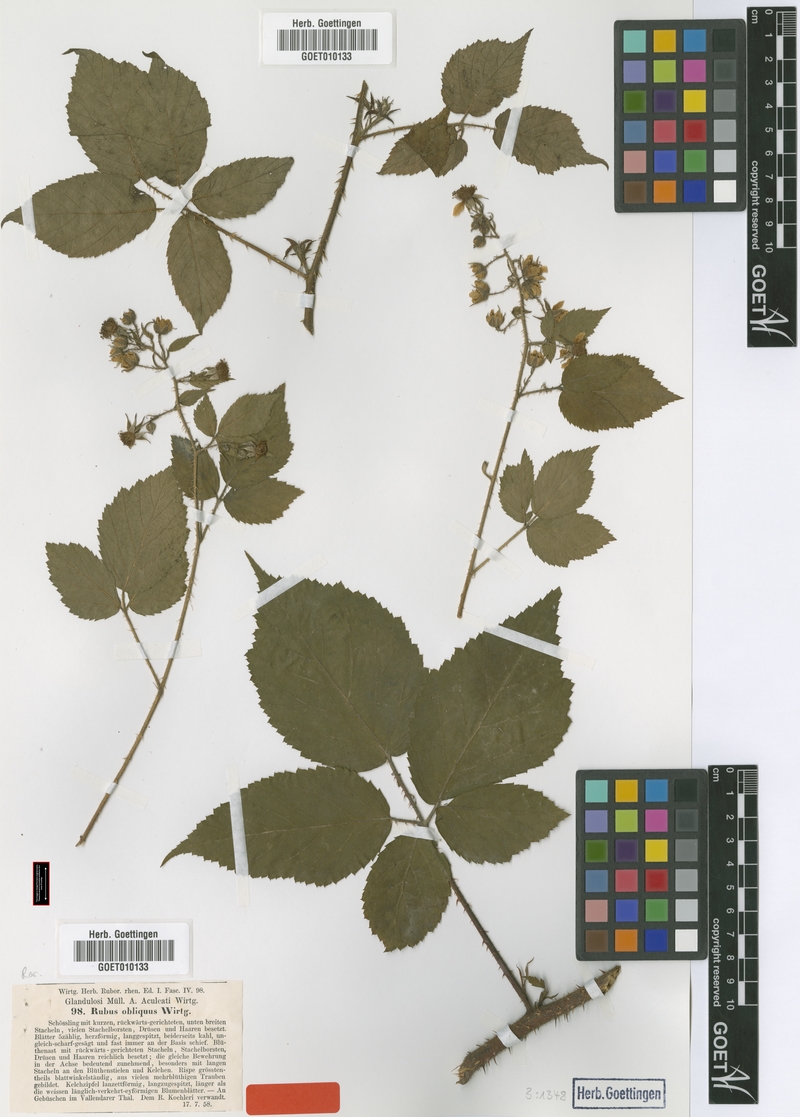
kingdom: Plantae
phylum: Tracheophyta
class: Magnoliopsida
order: Rosales
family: Rosaceae
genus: Rubus
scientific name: Rubus pallidus
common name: Pale bramble
